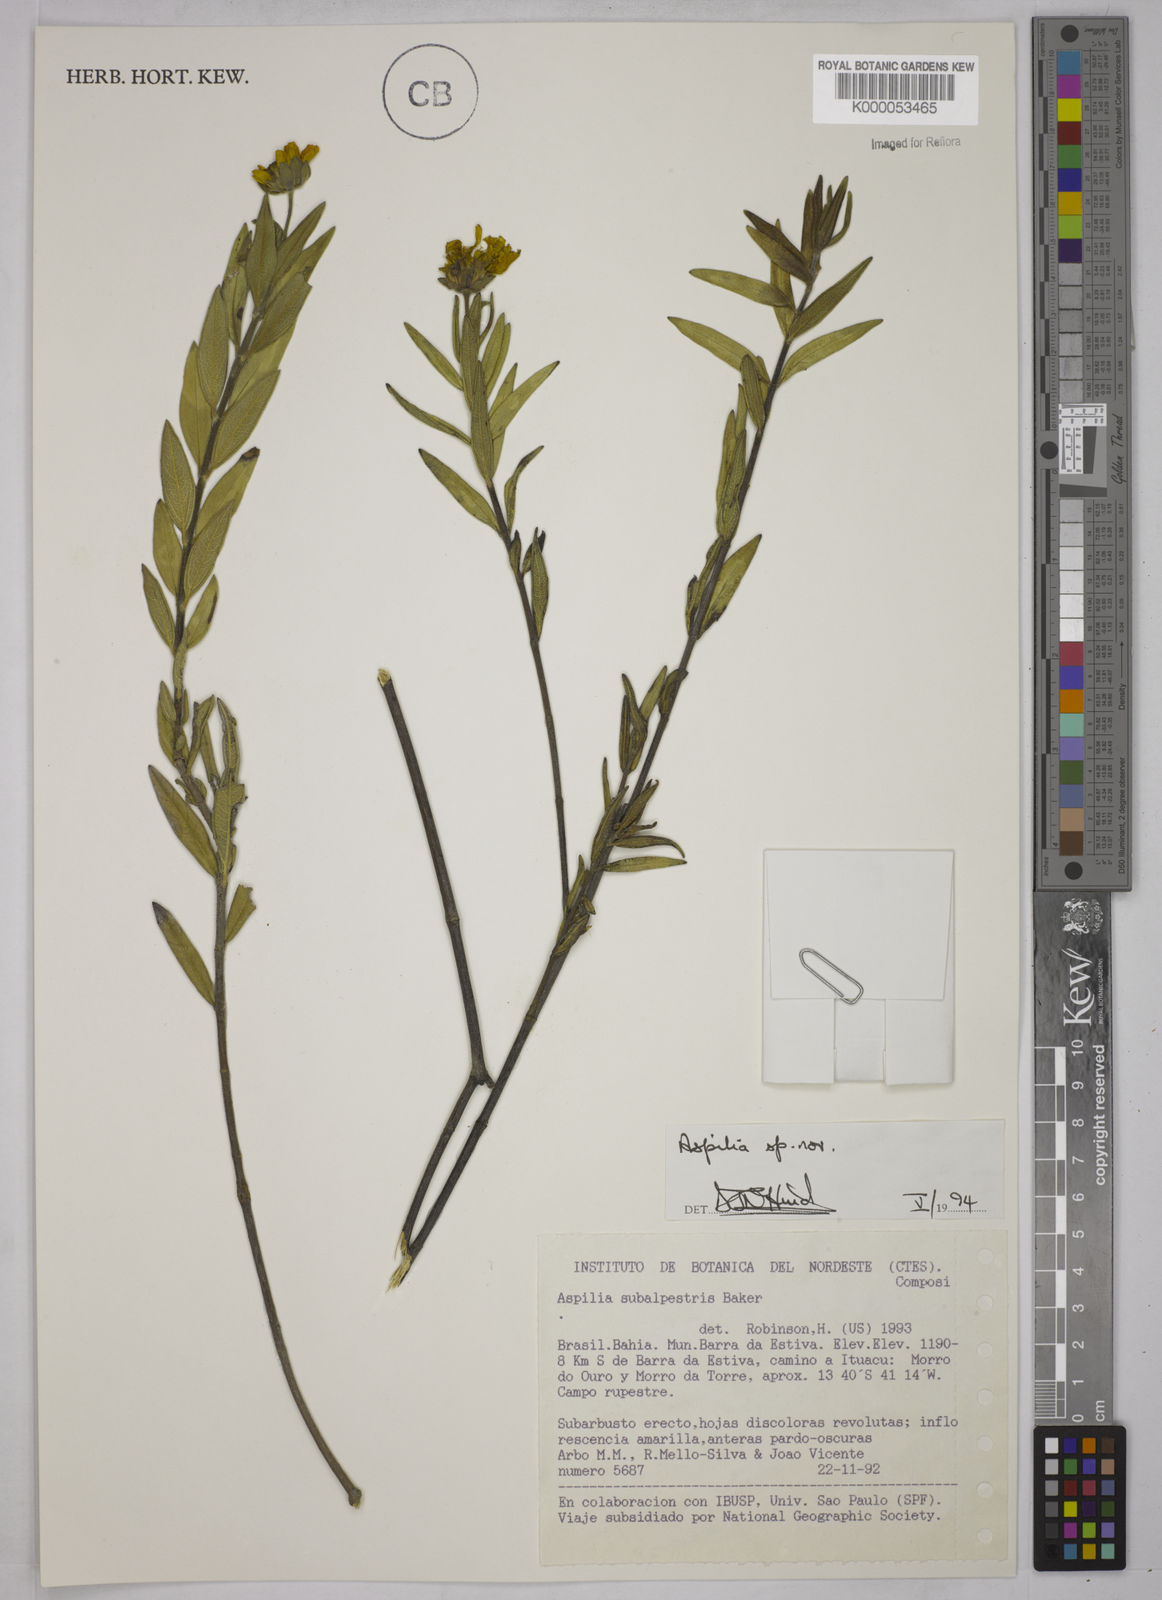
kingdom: Plantae
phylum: Tracheophyta
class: Magnoliopsida
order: Asterales
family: Asteraceae
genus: Aspilia
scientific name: Aspilia
